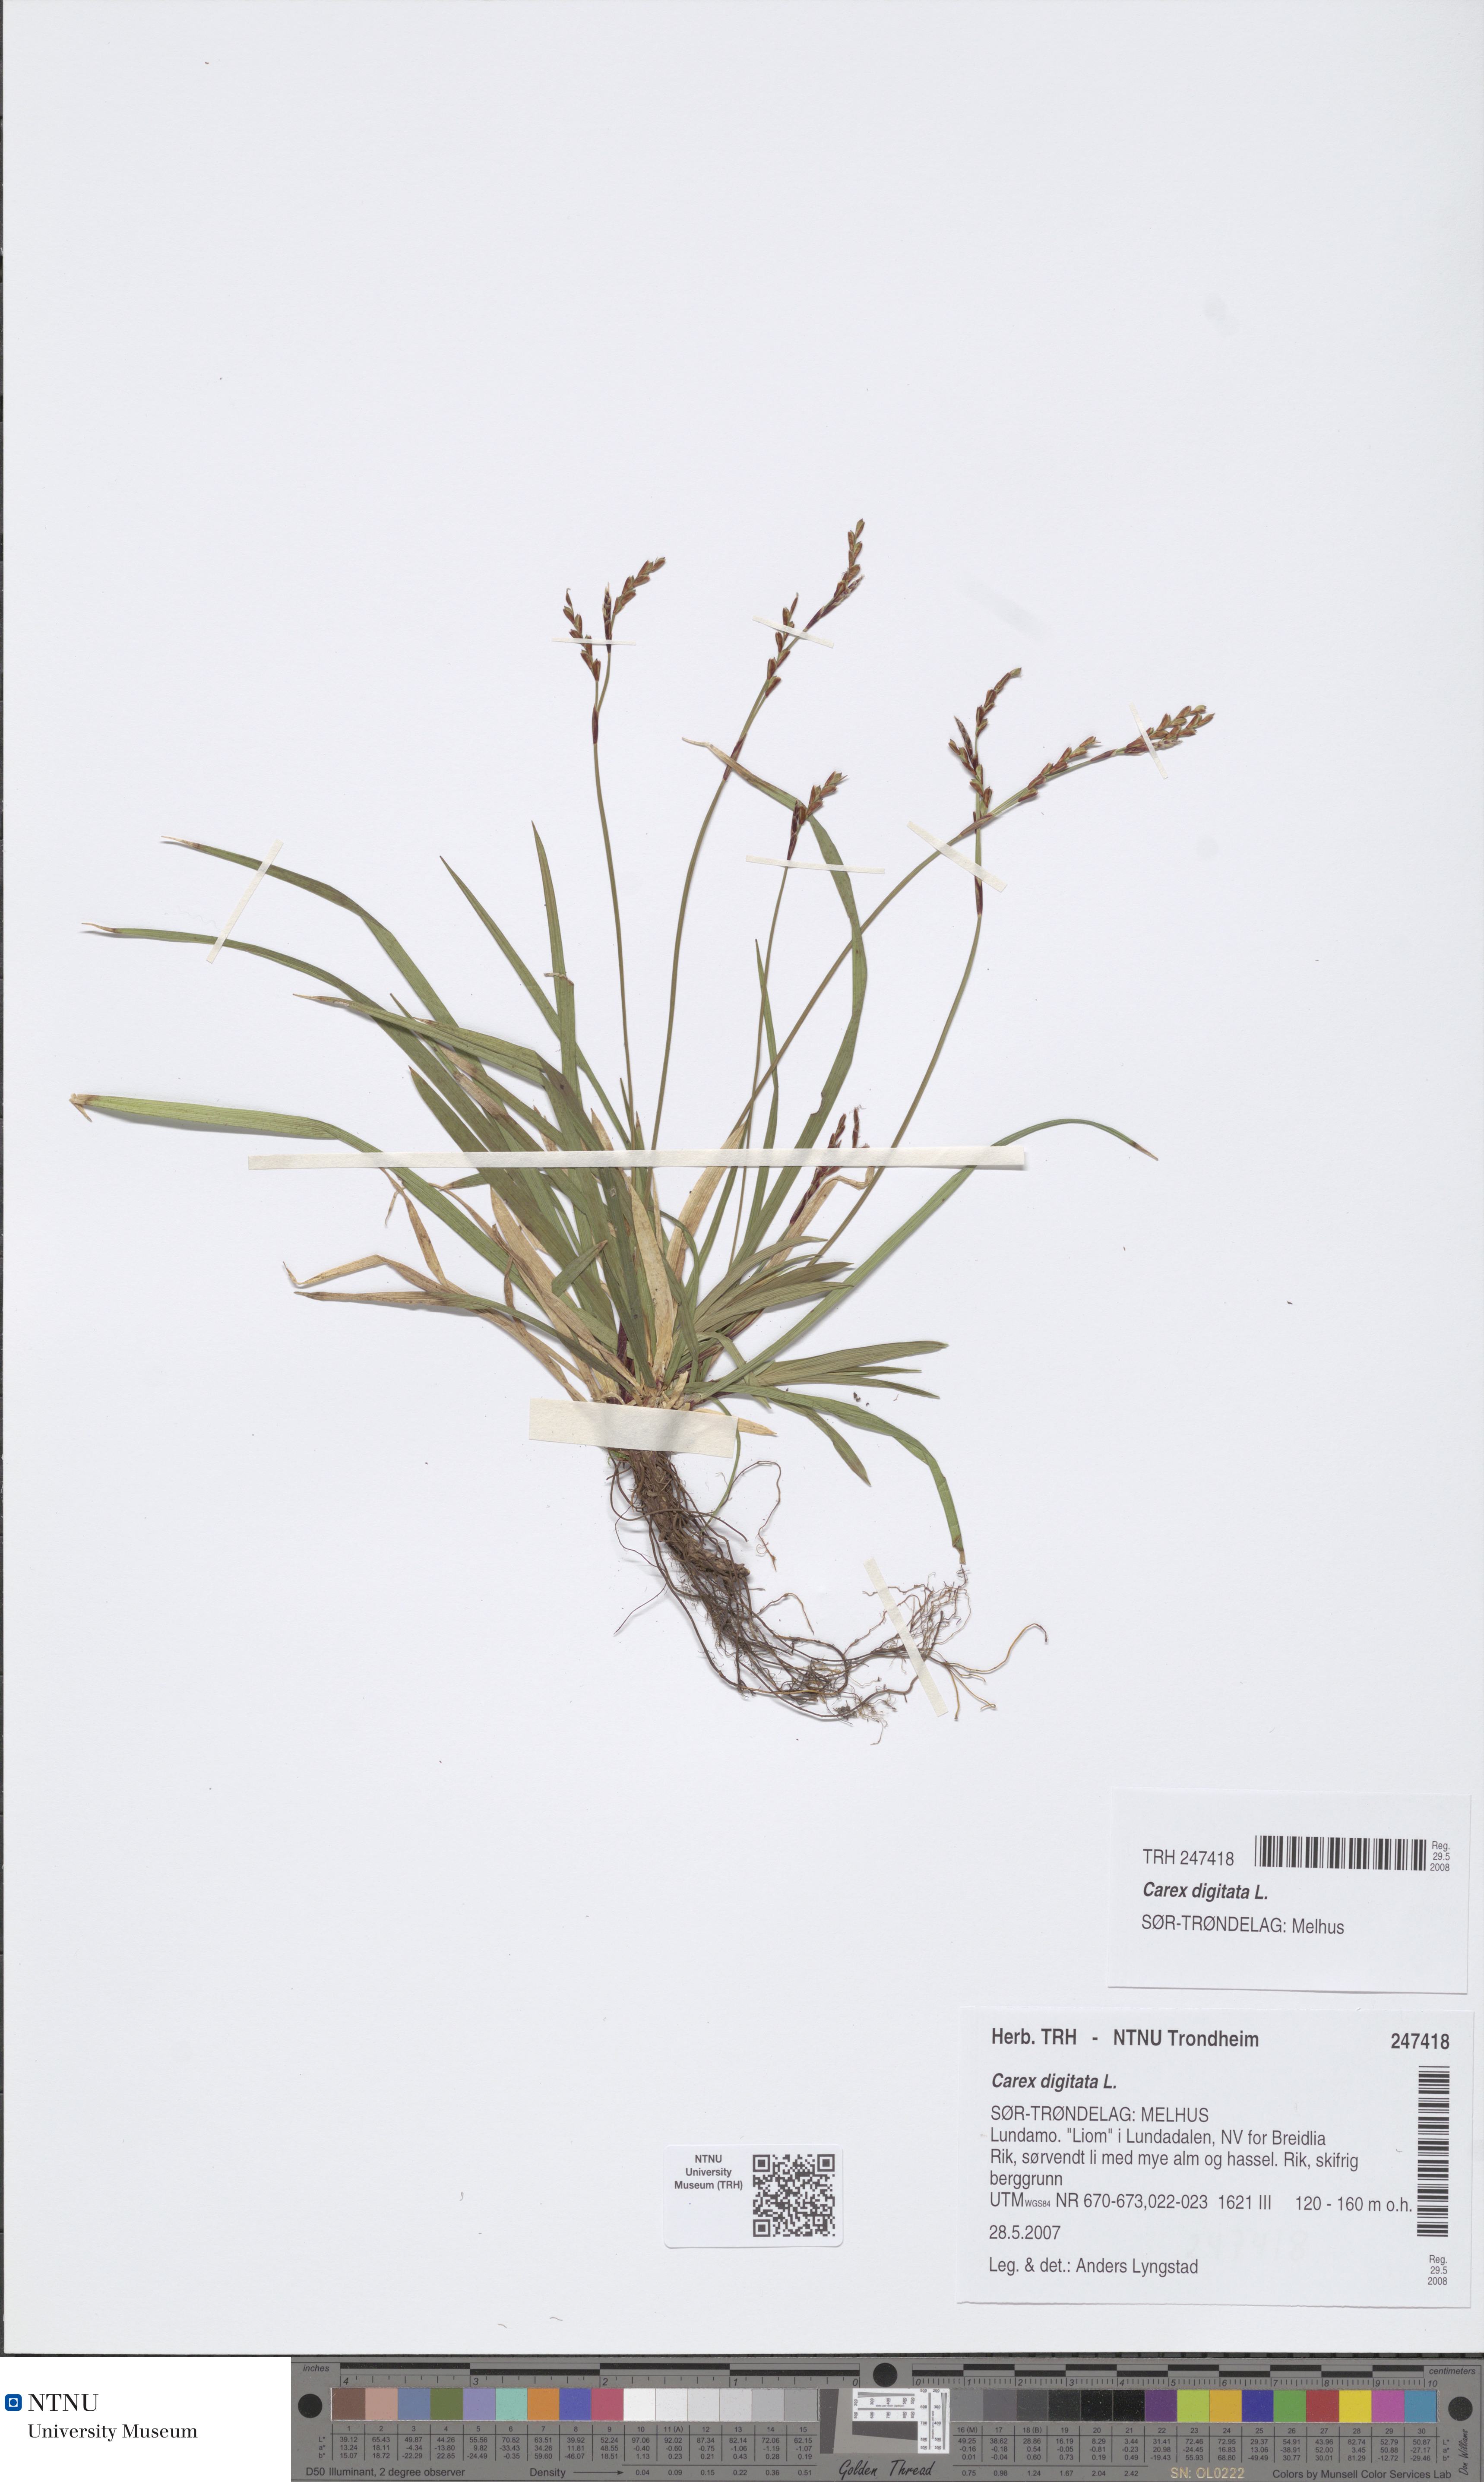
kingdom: Plantae
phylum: Tracheophyta
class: Liliopsida
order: Poales
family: Cyperaceae
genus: Carex
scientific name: Carex digitata
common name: Fingered sedge
